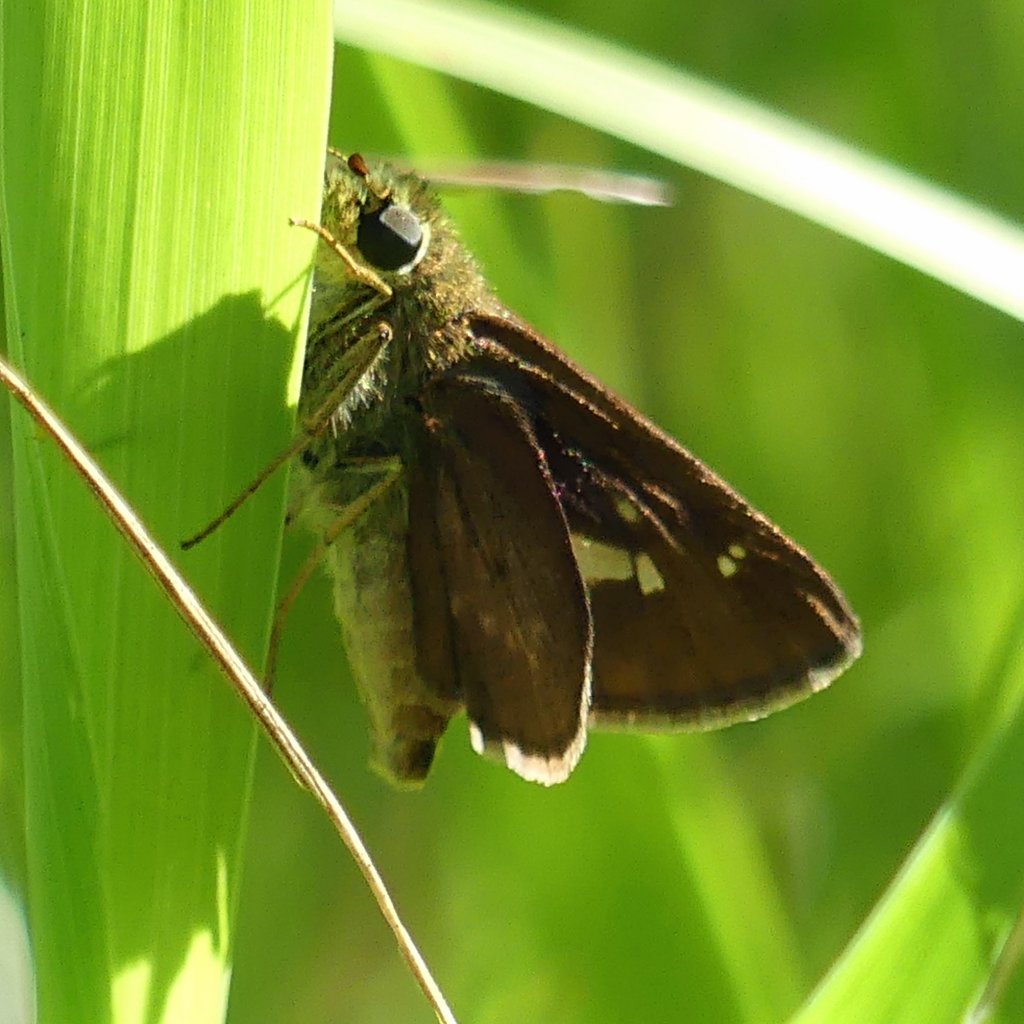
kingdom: Animalia
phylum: Arthropoda
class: Insecta
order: Lepidoptera
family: Hesperiidae
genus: Vernia
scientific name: Vernia verna
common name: Little Glassywing
